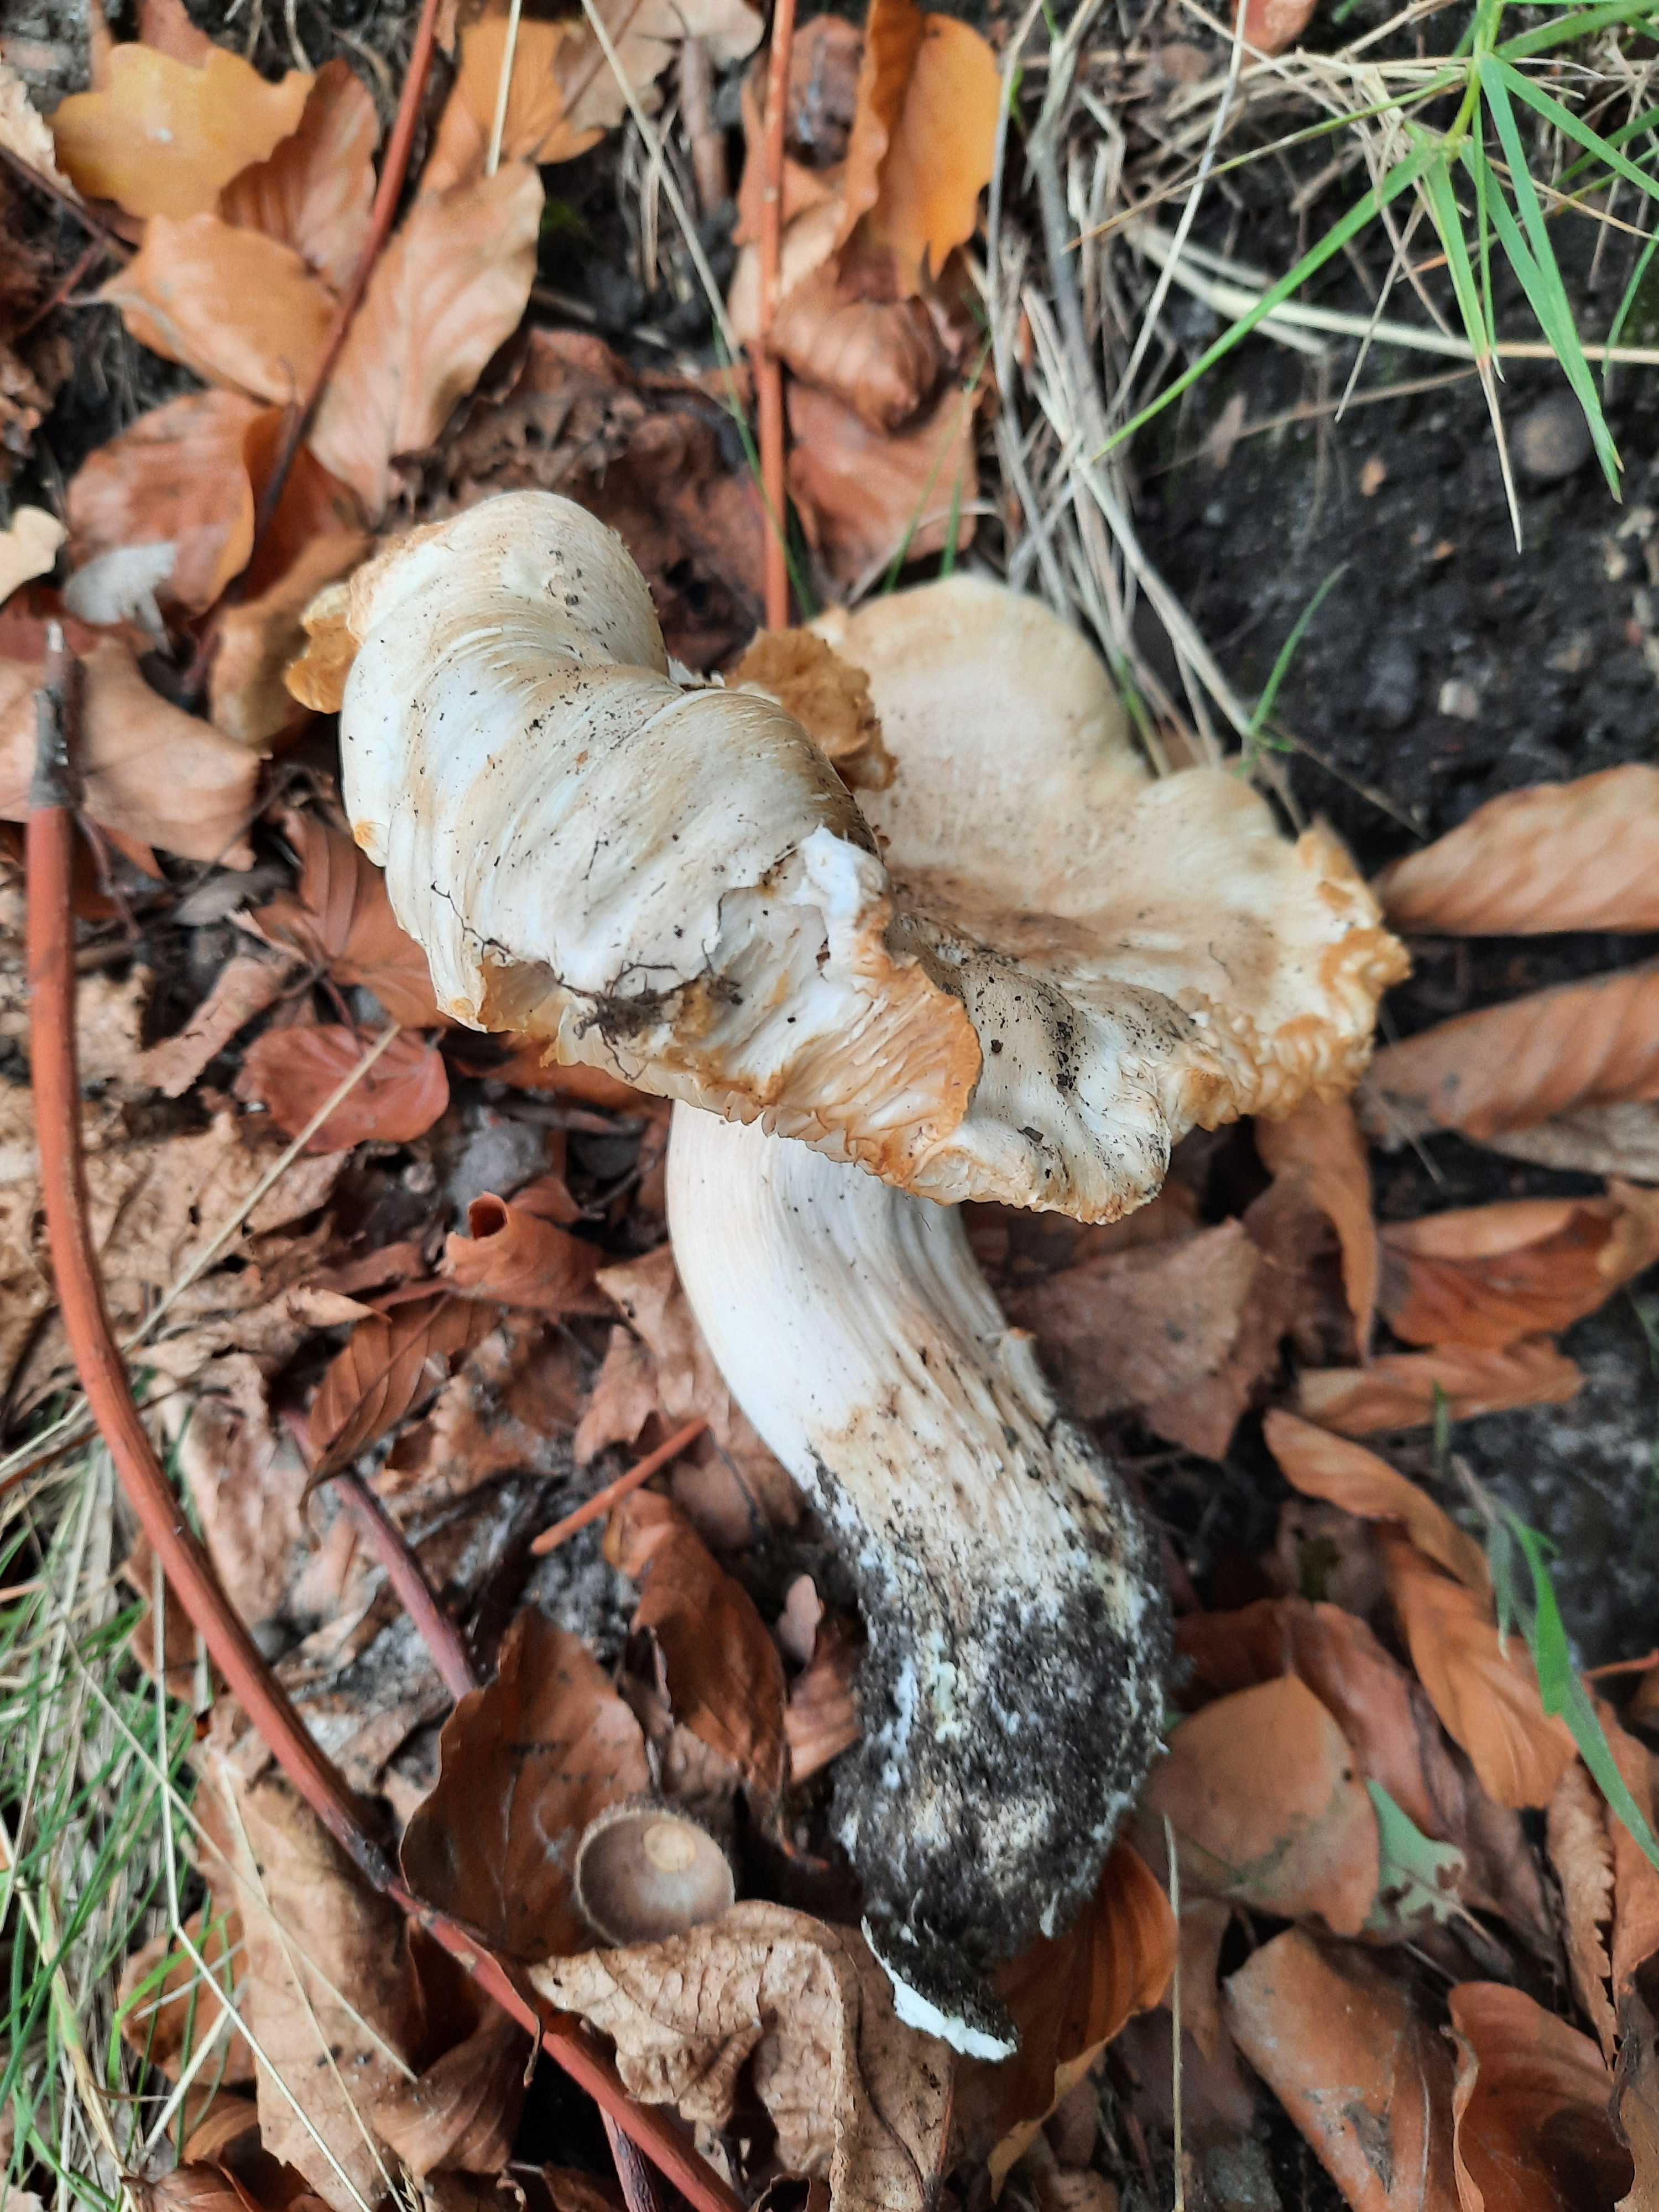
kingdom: Fungi
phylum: Basidiomycota
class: Agaricomycetes
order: Agaricales
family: Tricholomataceae
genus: Tricholoma
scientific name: Tricholoma columbetta
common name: silke-ridderhat
